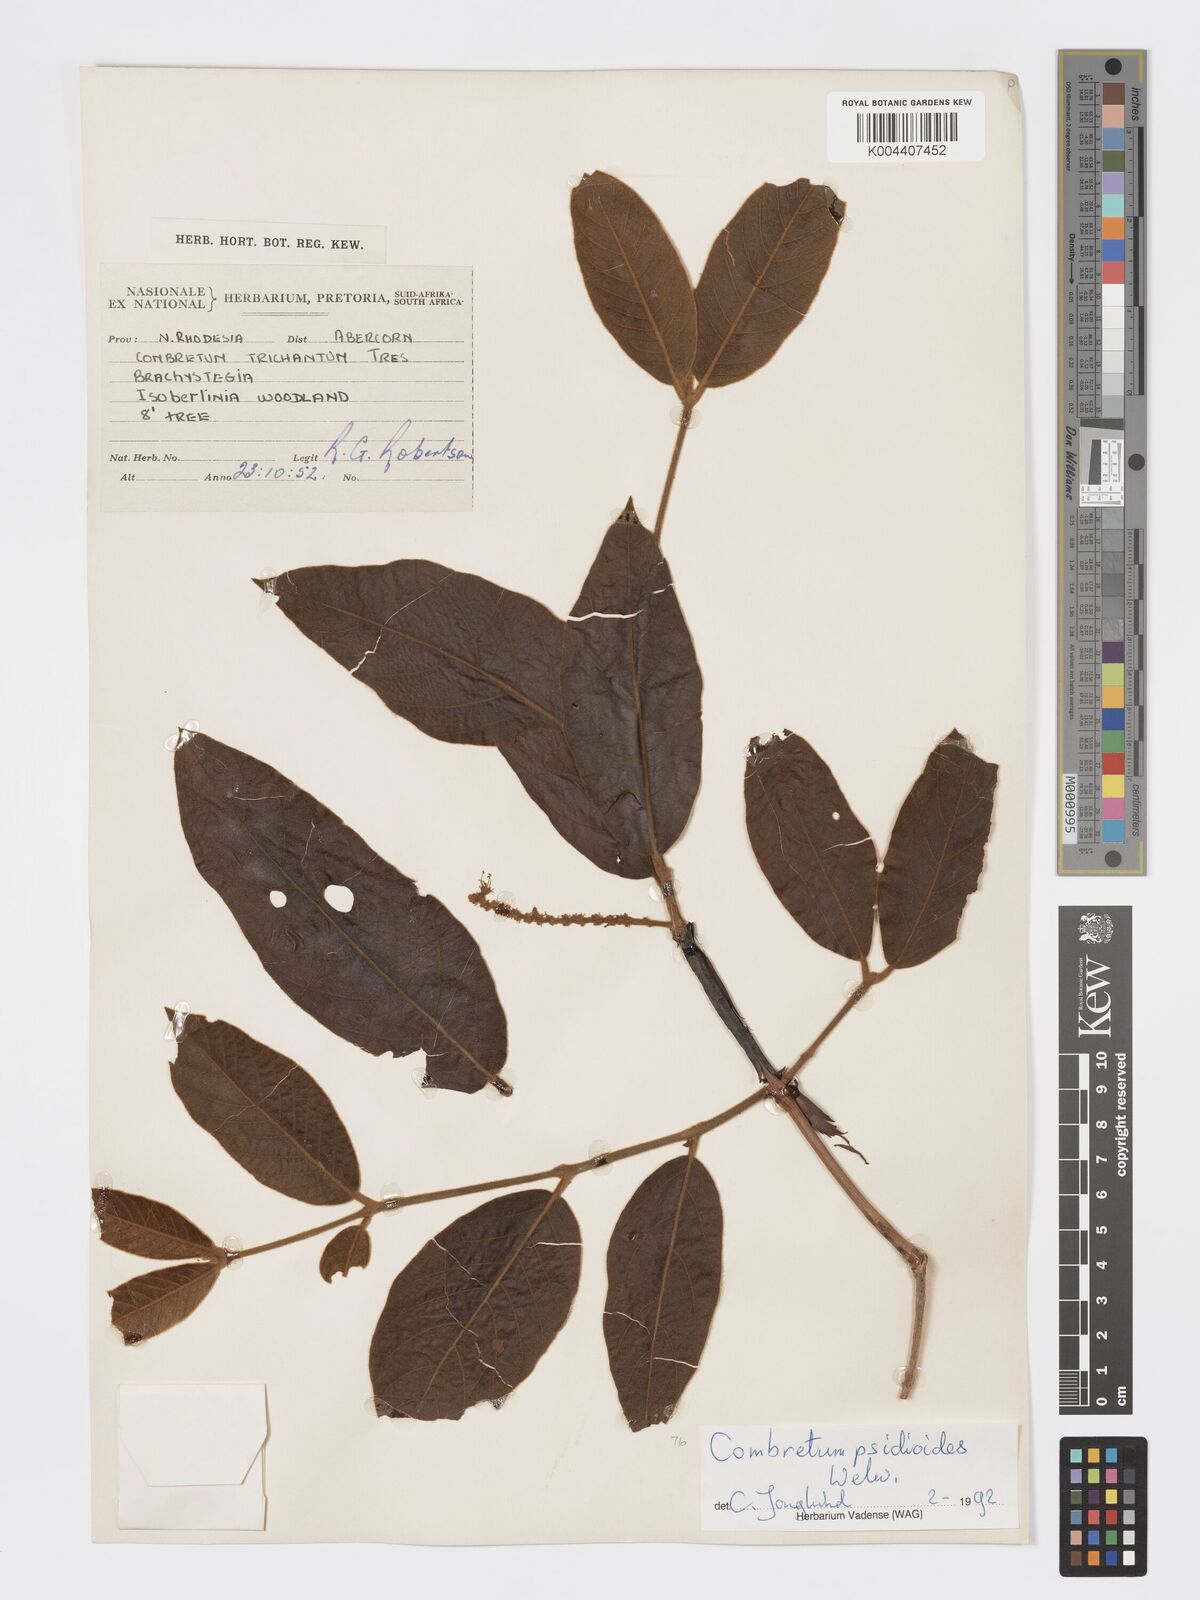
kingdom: Plantae
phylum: Tracheophyta
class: Magnoliopsida
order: Myrtales
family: Combretaceae
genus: Combretum
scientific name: Combretum psidioides
